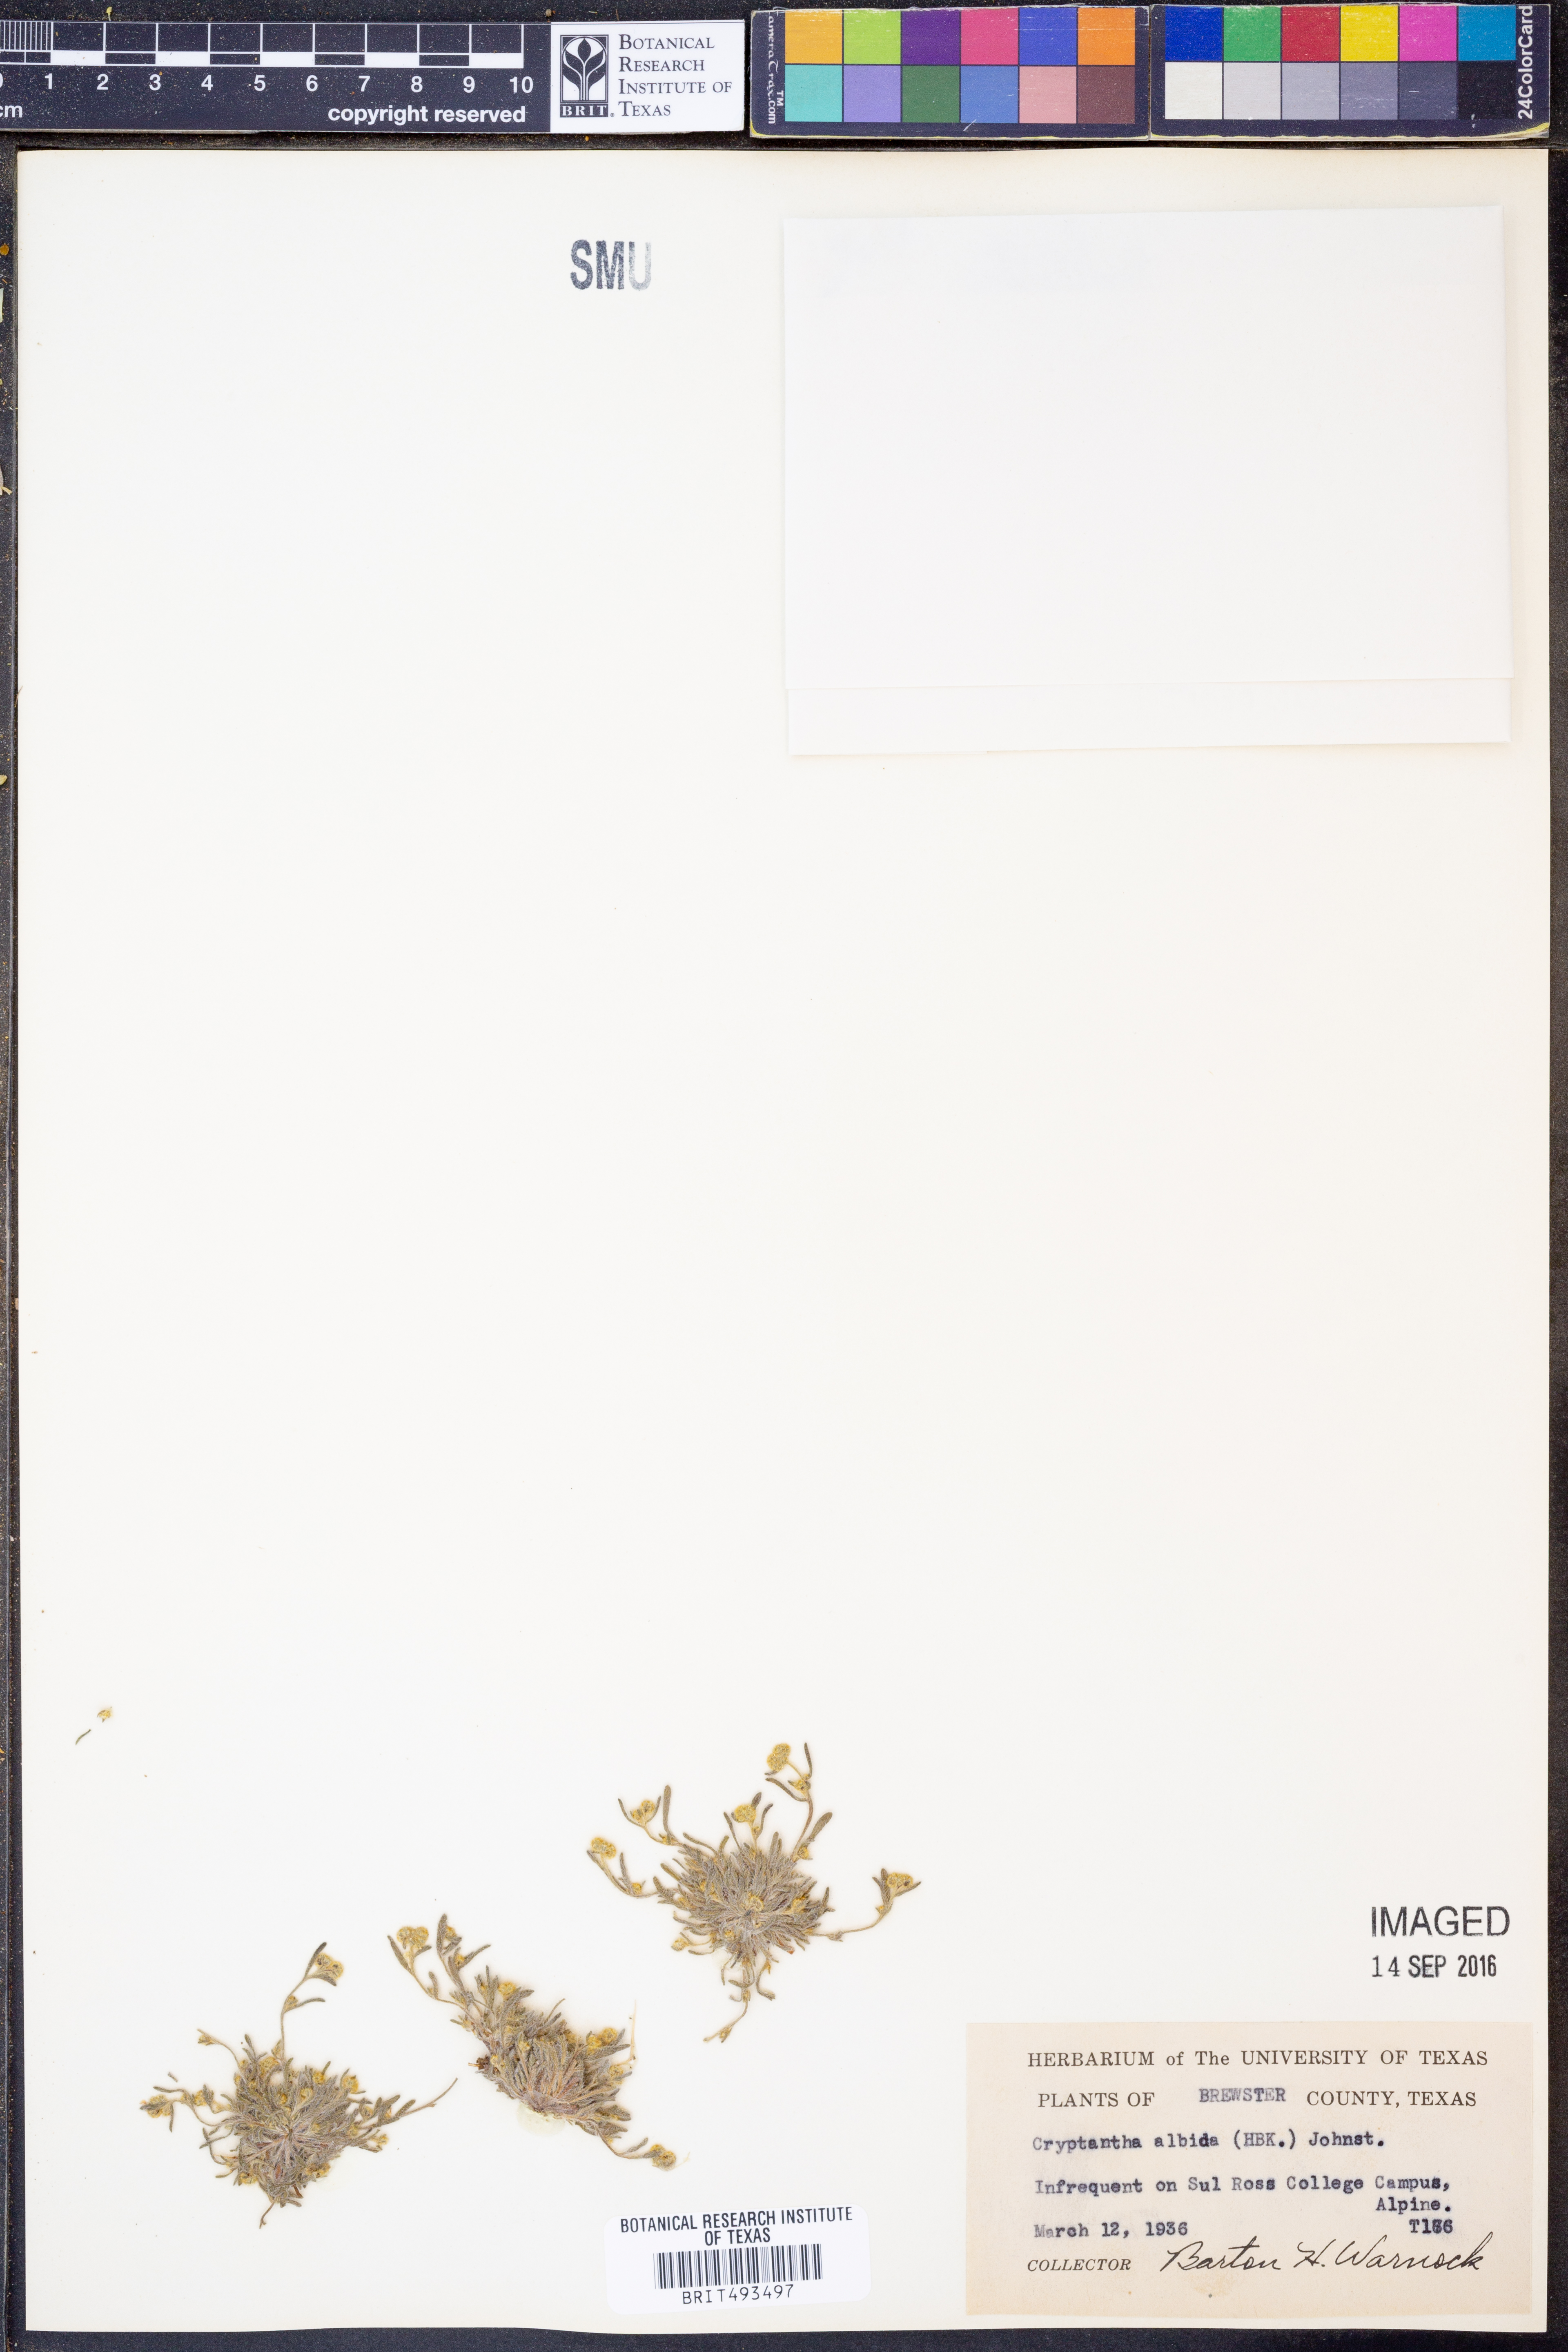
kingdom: Plantae
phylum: Tracheophyta
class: Magnoliopsida
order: Boraginales
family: Boraginaceae
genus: Johnstonella
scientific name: Johnstonella albida
